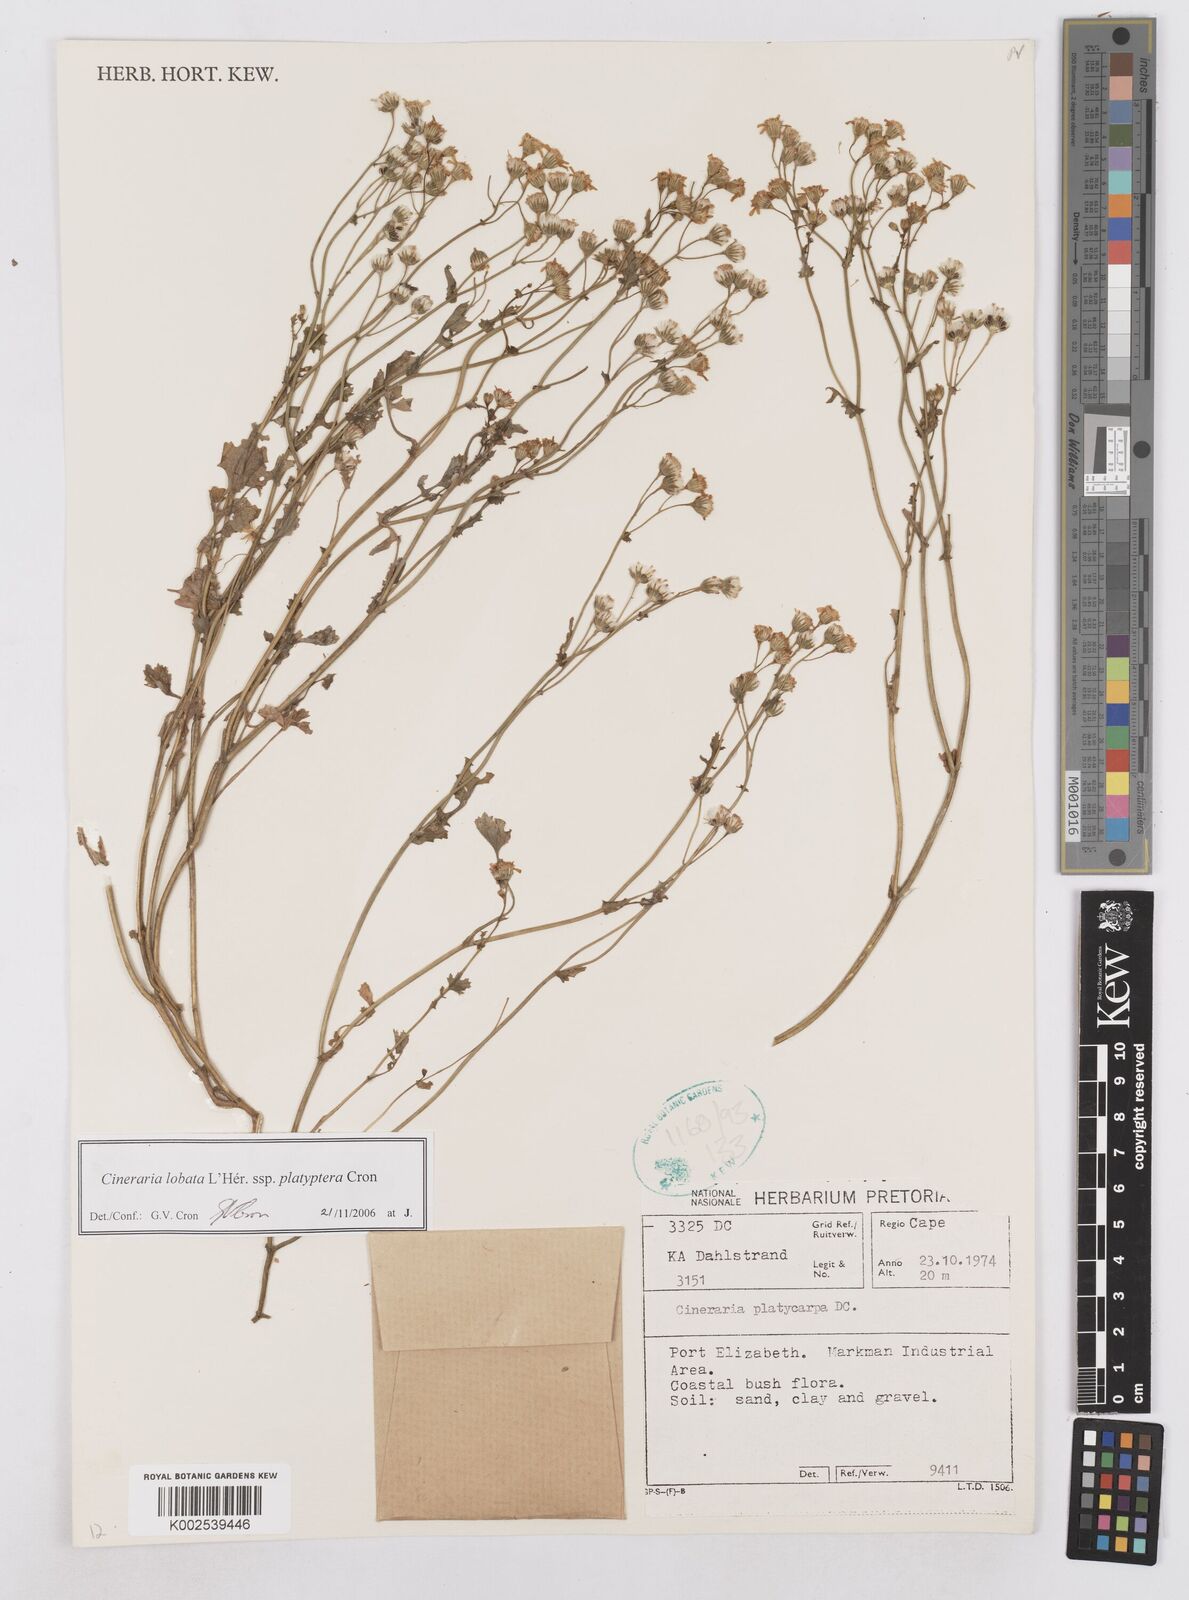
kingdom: Plantae
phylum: Tracheophyta
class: Magnoliopsida
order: Asterales
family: Asteraceae
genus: Cineraria
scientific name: Cineraria lobata
